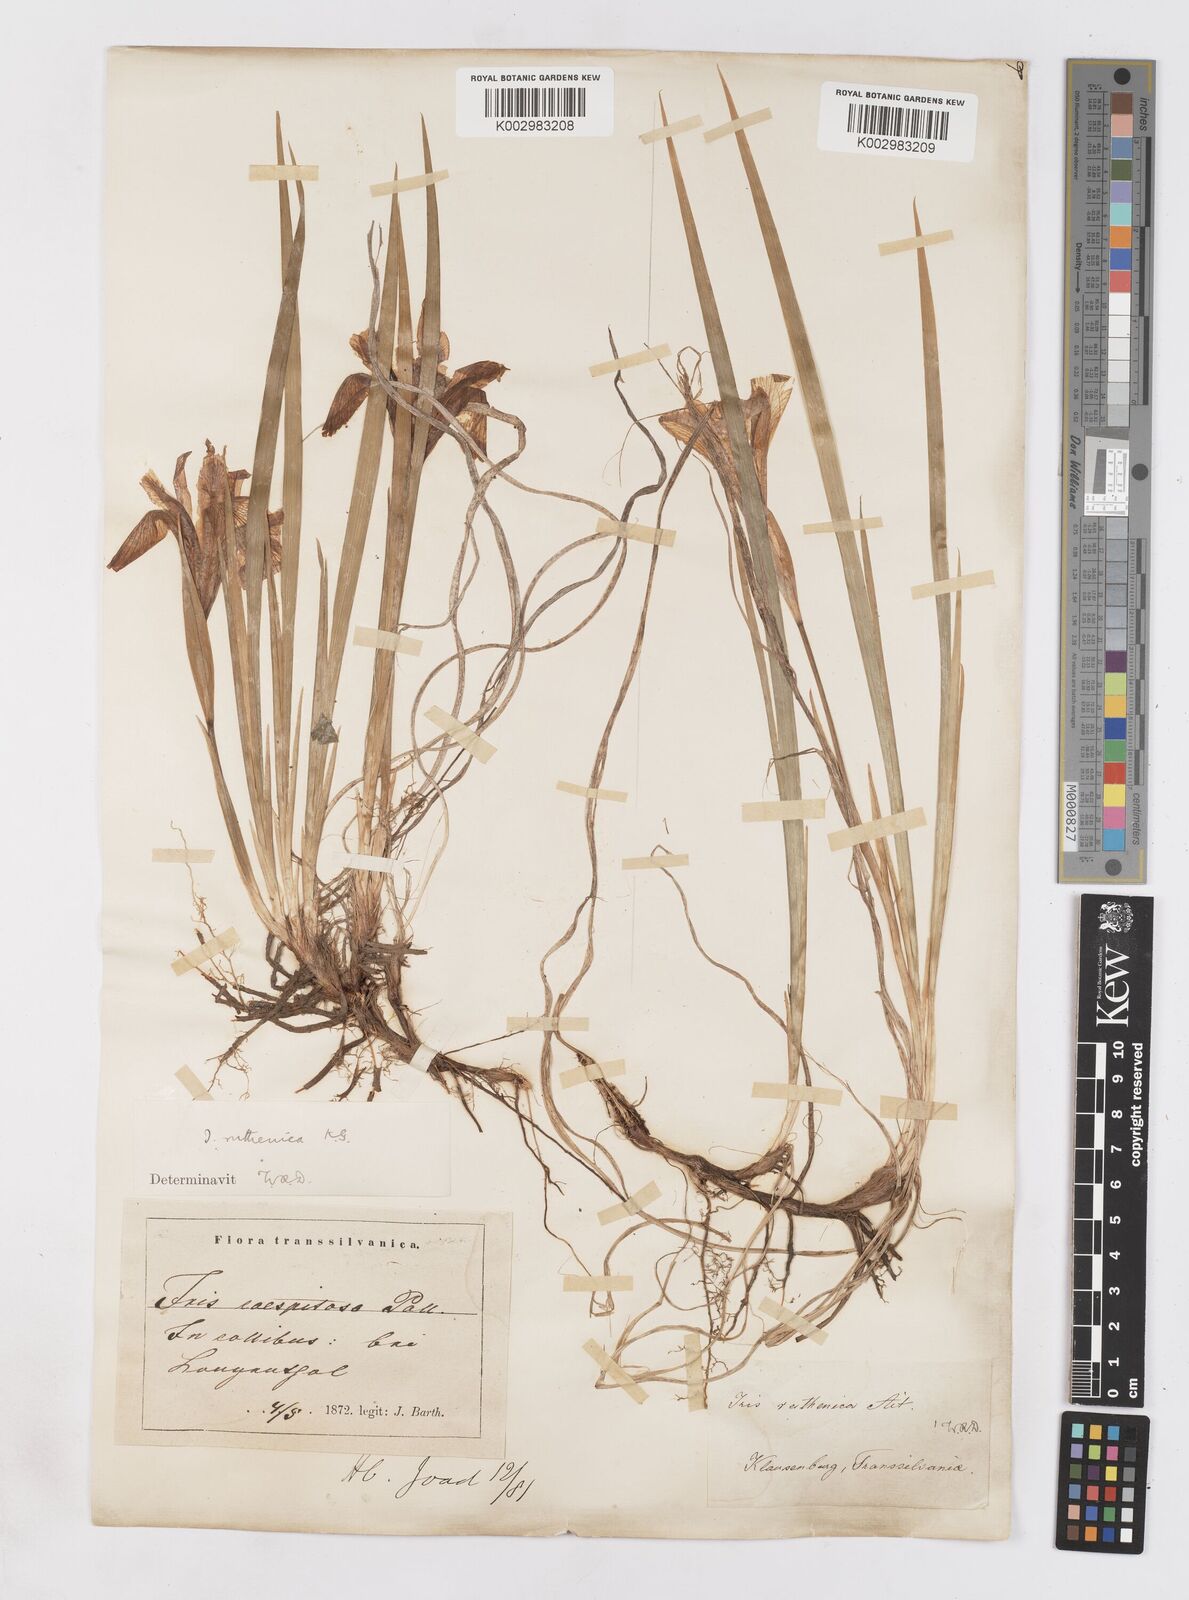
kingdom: Plantae
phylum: Tracheophyta
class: Liliopsida
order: Asparagales
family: Iridaceae
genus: Iris
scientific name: Iris ruthenica
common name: Purple-bract iris
